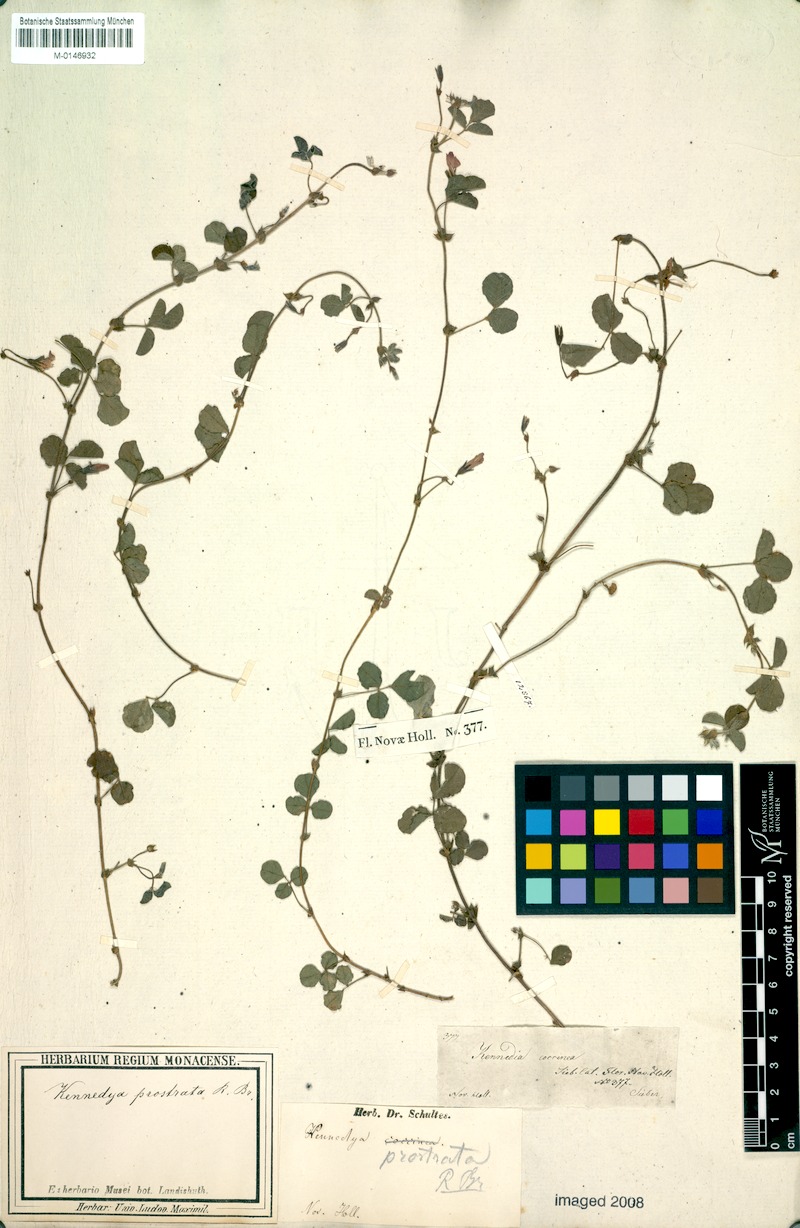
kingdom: Plantae
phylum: Tracheophyta
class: Magnoliopsida
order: Fabales
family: Fabaceae
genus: Kennedia
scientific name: Kennedia prostrata
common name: Running-postman
